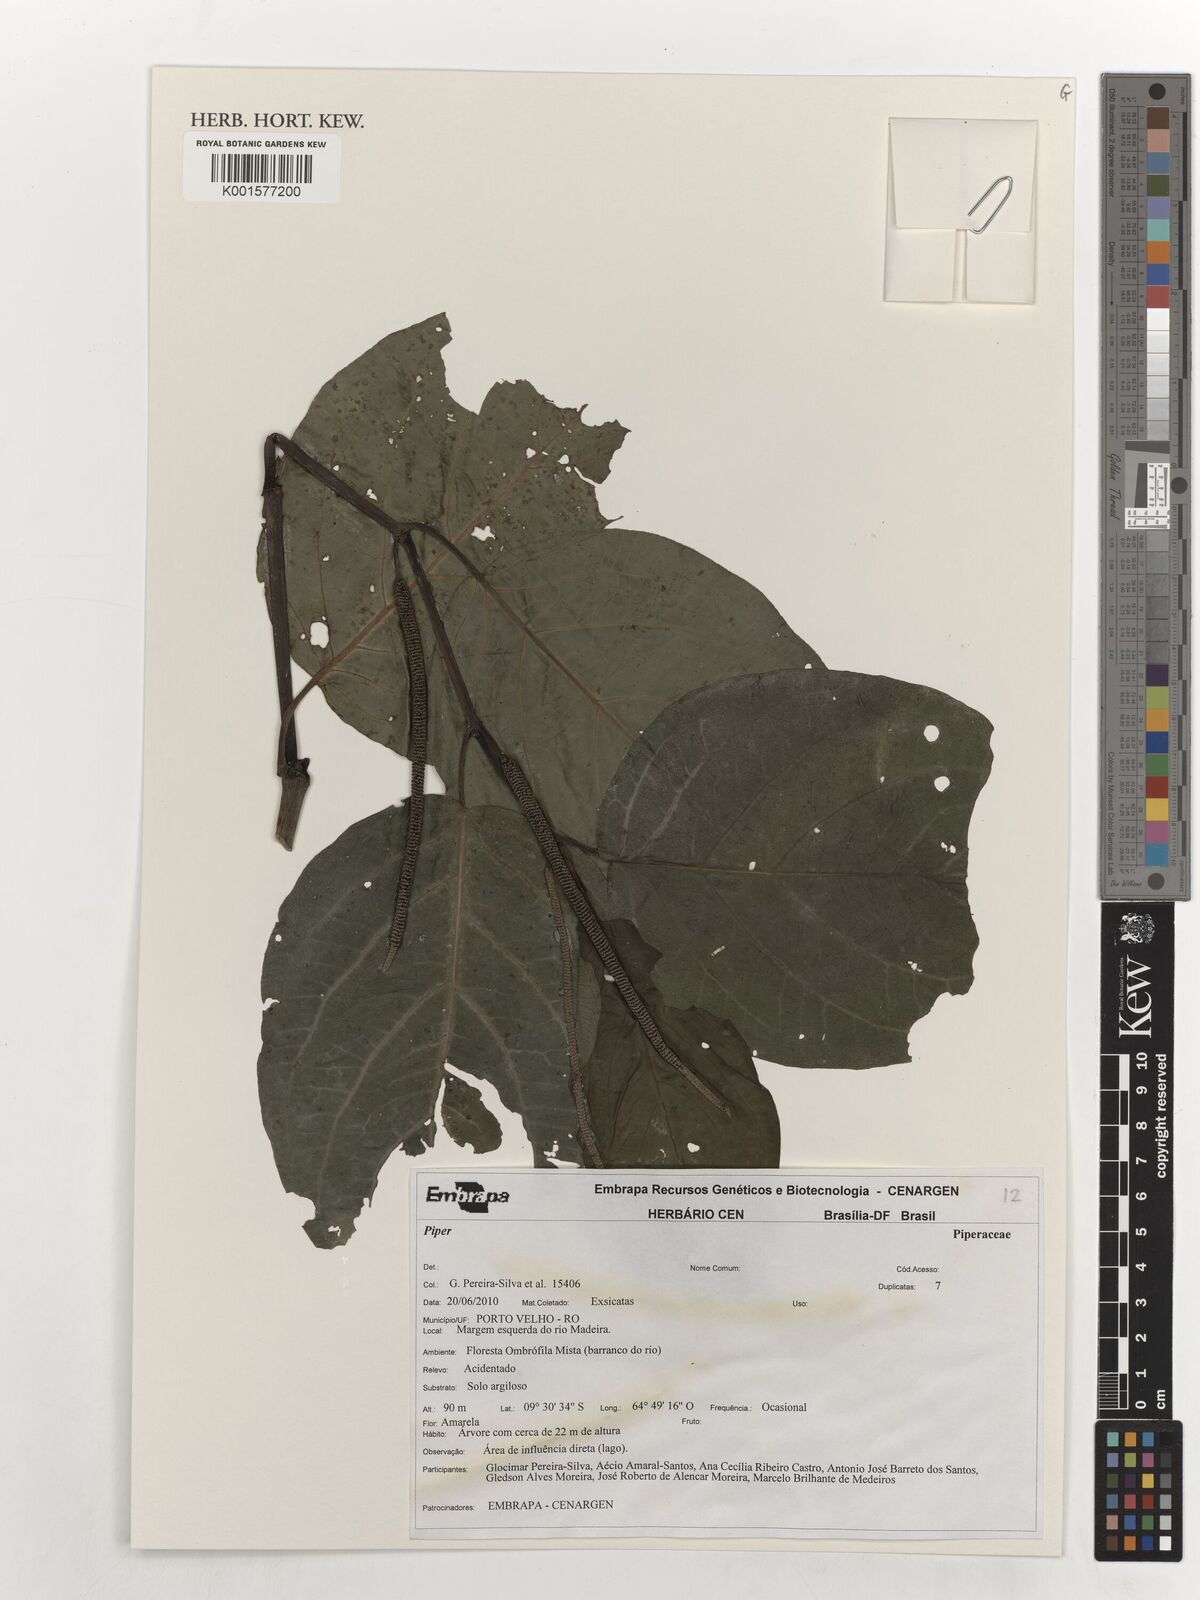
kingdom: Plantae
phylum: Tracheophyta
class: Magnoliopsida
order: Piperales
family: Piperaceae
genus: Piper
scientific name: Piper
